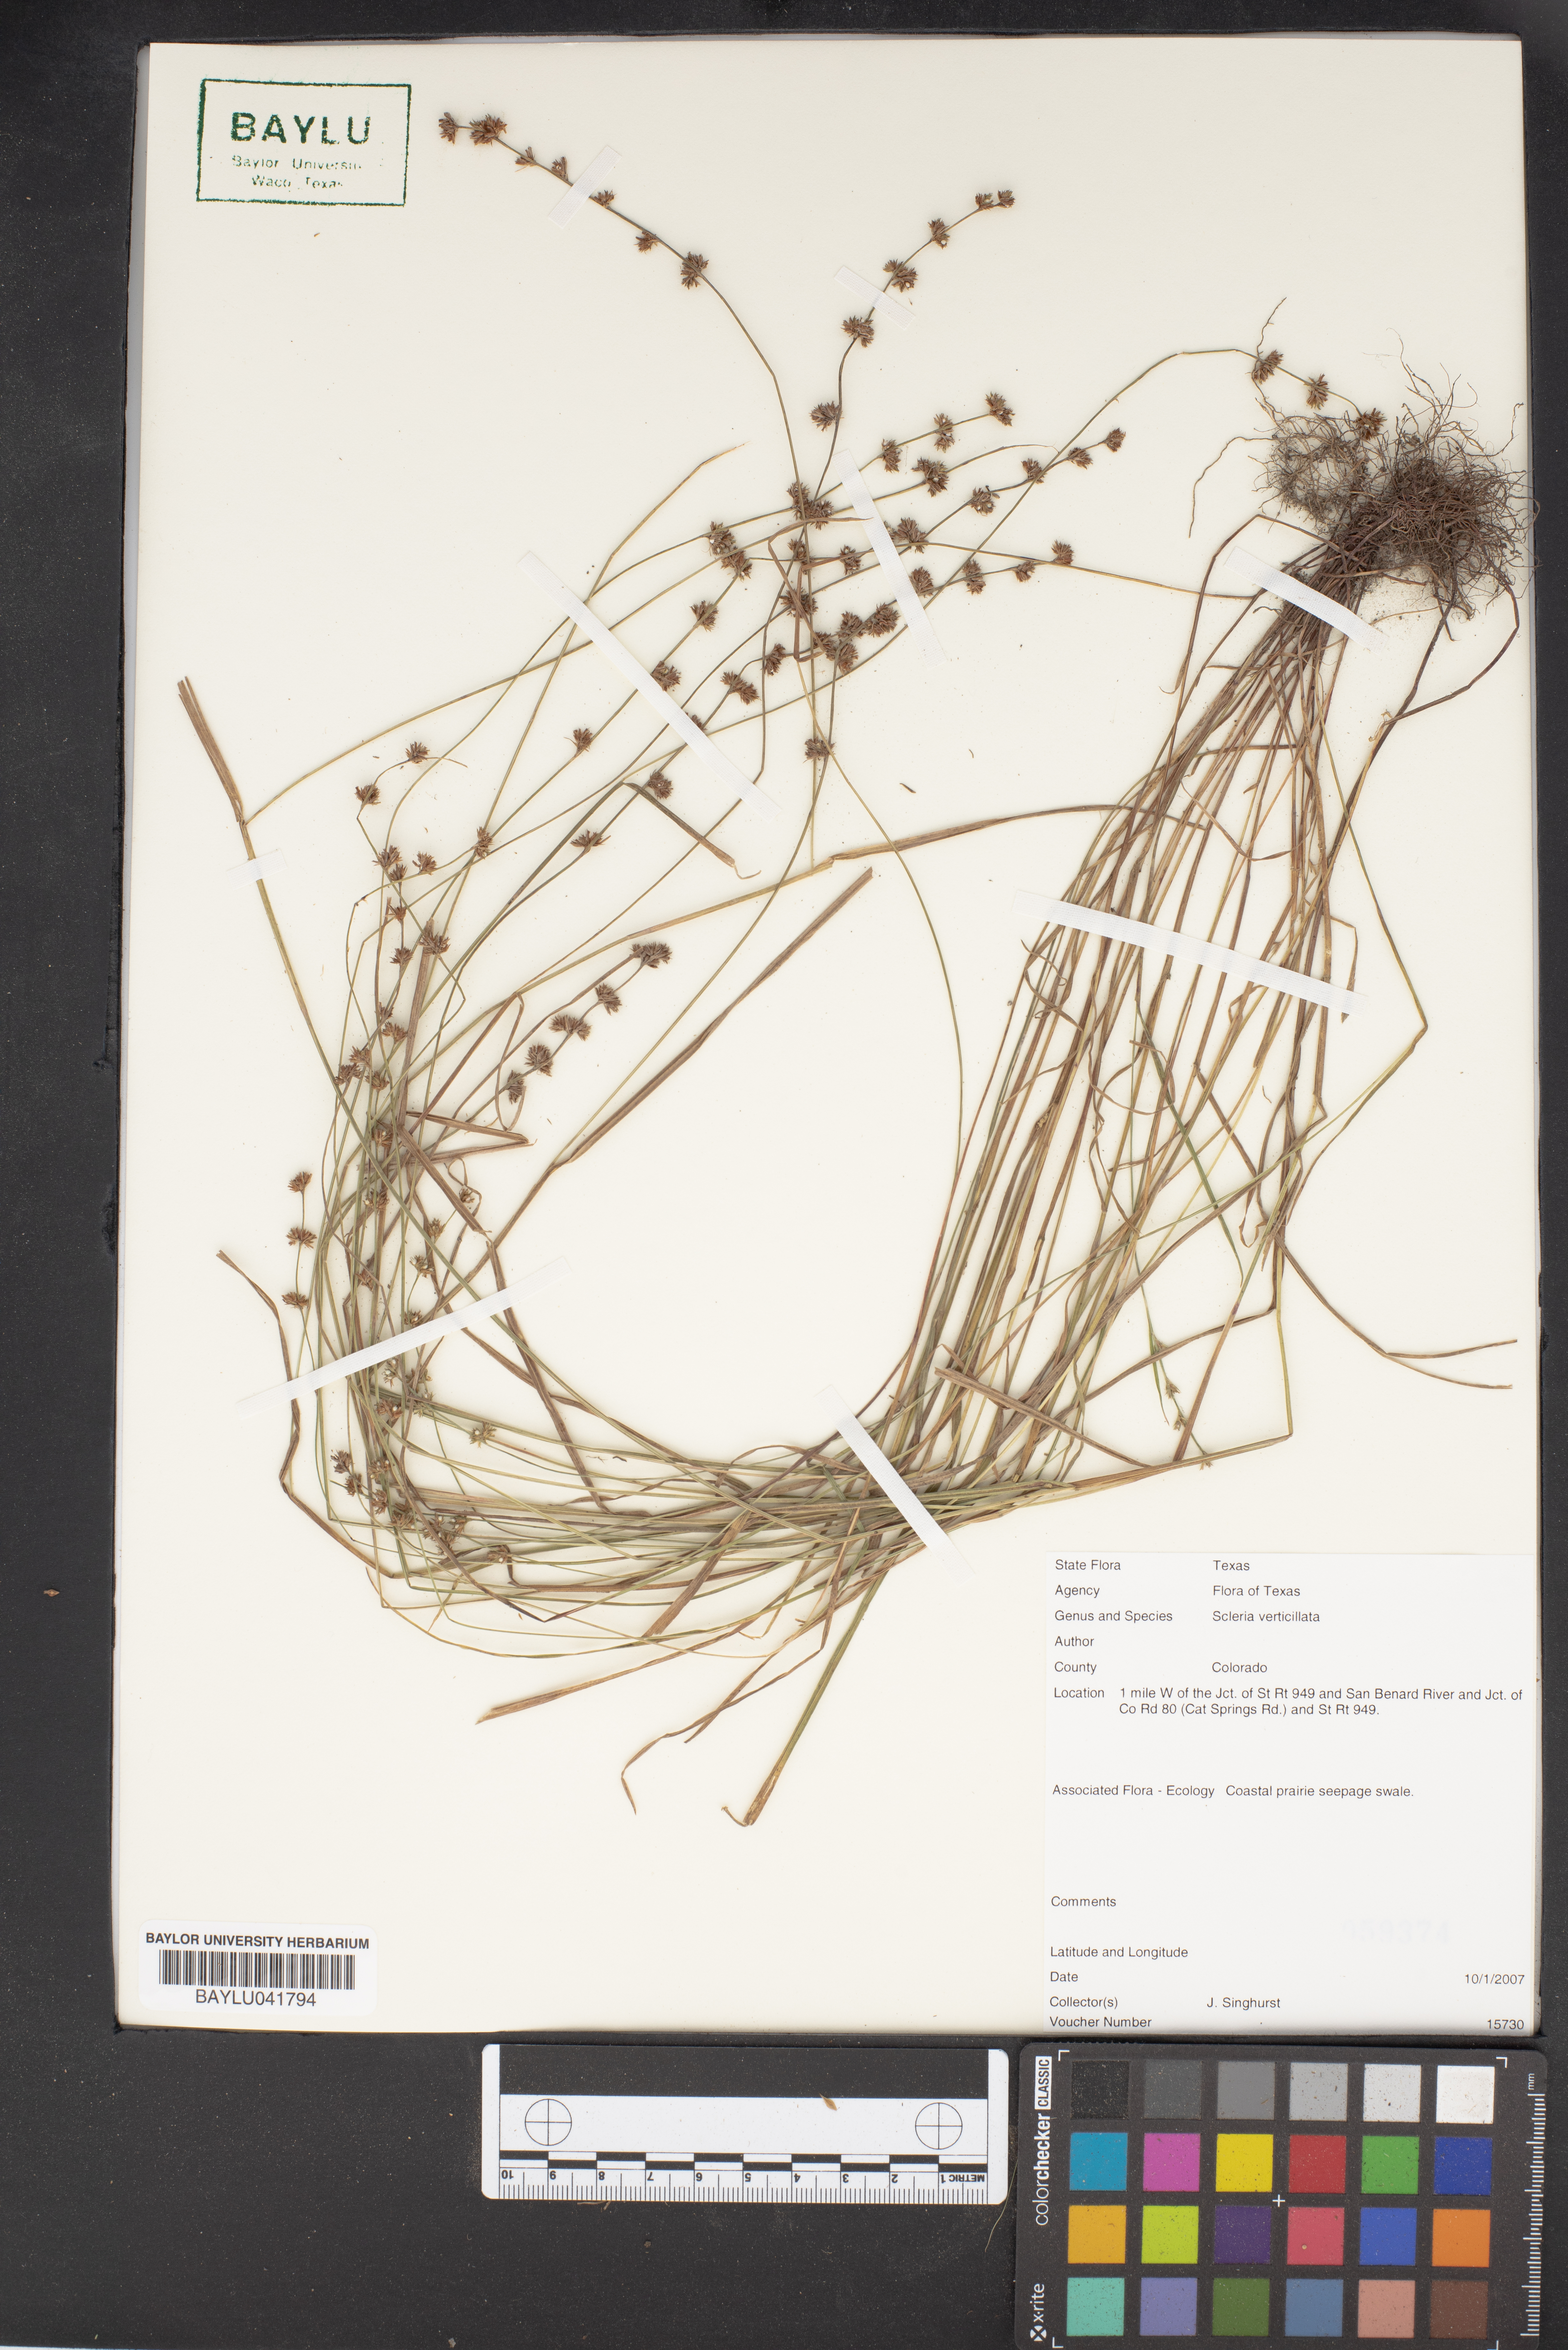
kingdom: Plantae
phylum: Tracheophyta
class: Liliopsida
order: Poales
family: Cyperaceae
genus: Scleria
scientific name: Scleria verticillata
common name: Low nutrush
